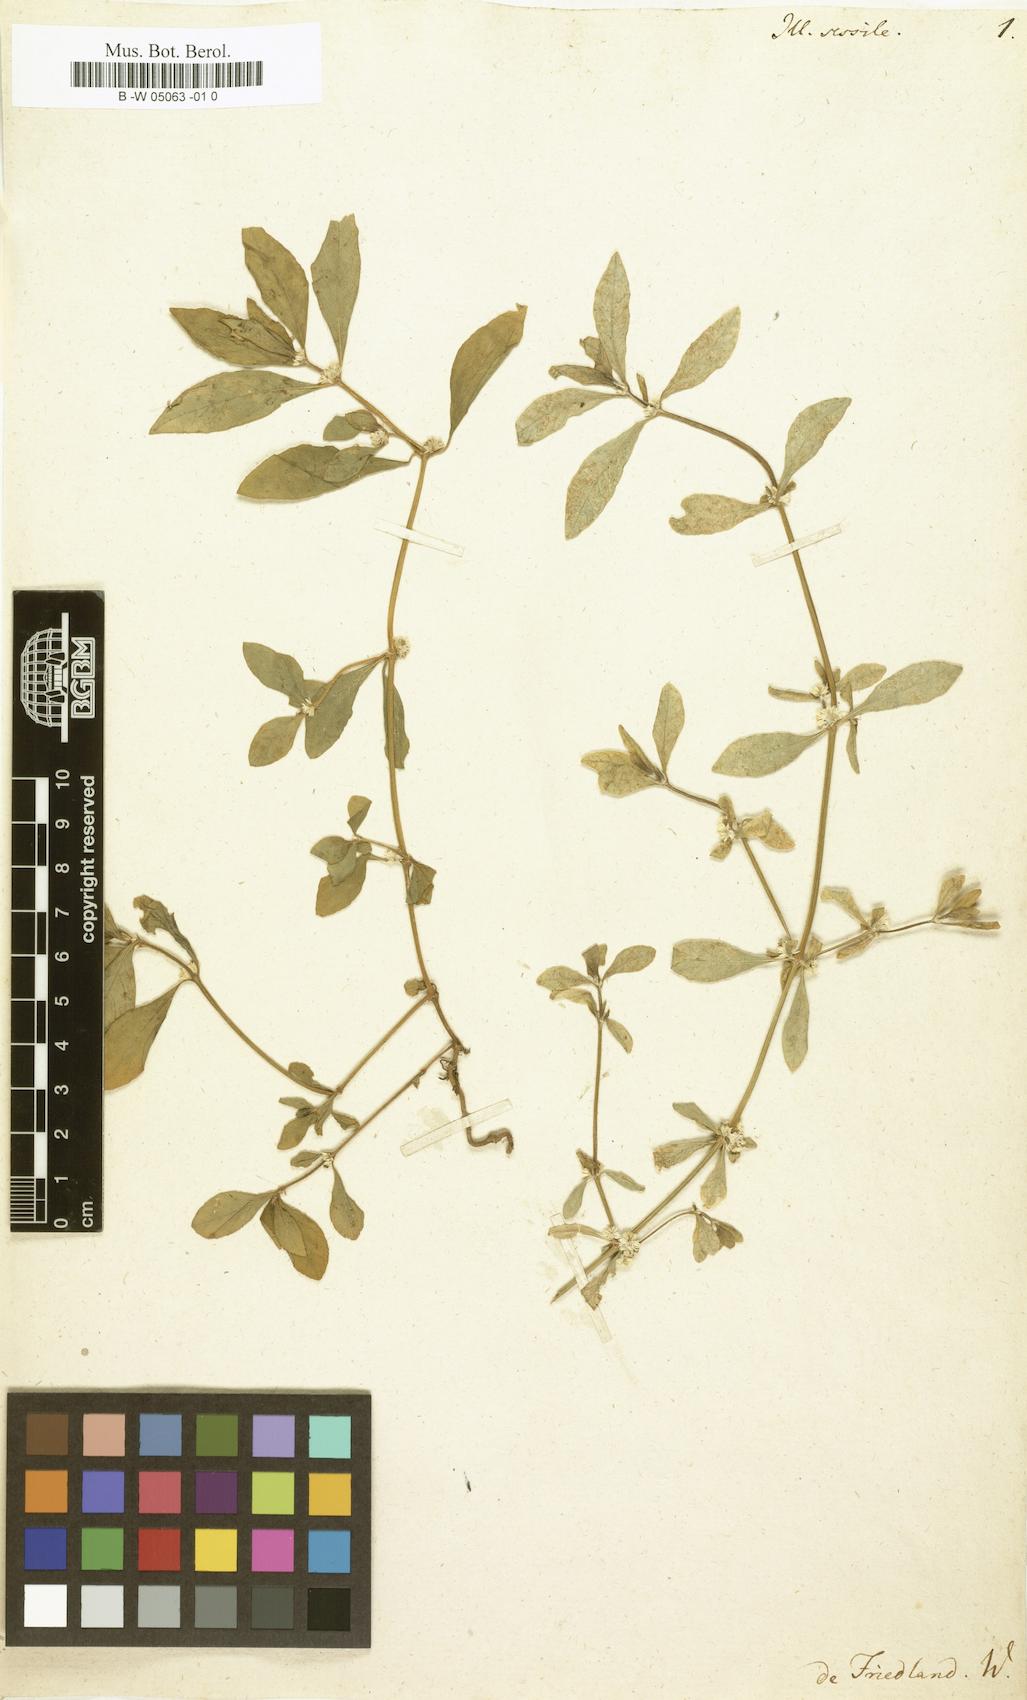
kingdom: Plantae
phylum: Tracheophyta
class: Magnoliopsida
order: Caryophyllales
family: Amaranthaceae
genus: Alternanthera
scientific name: Alternanthera sessilis
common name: Sessile joyweed
